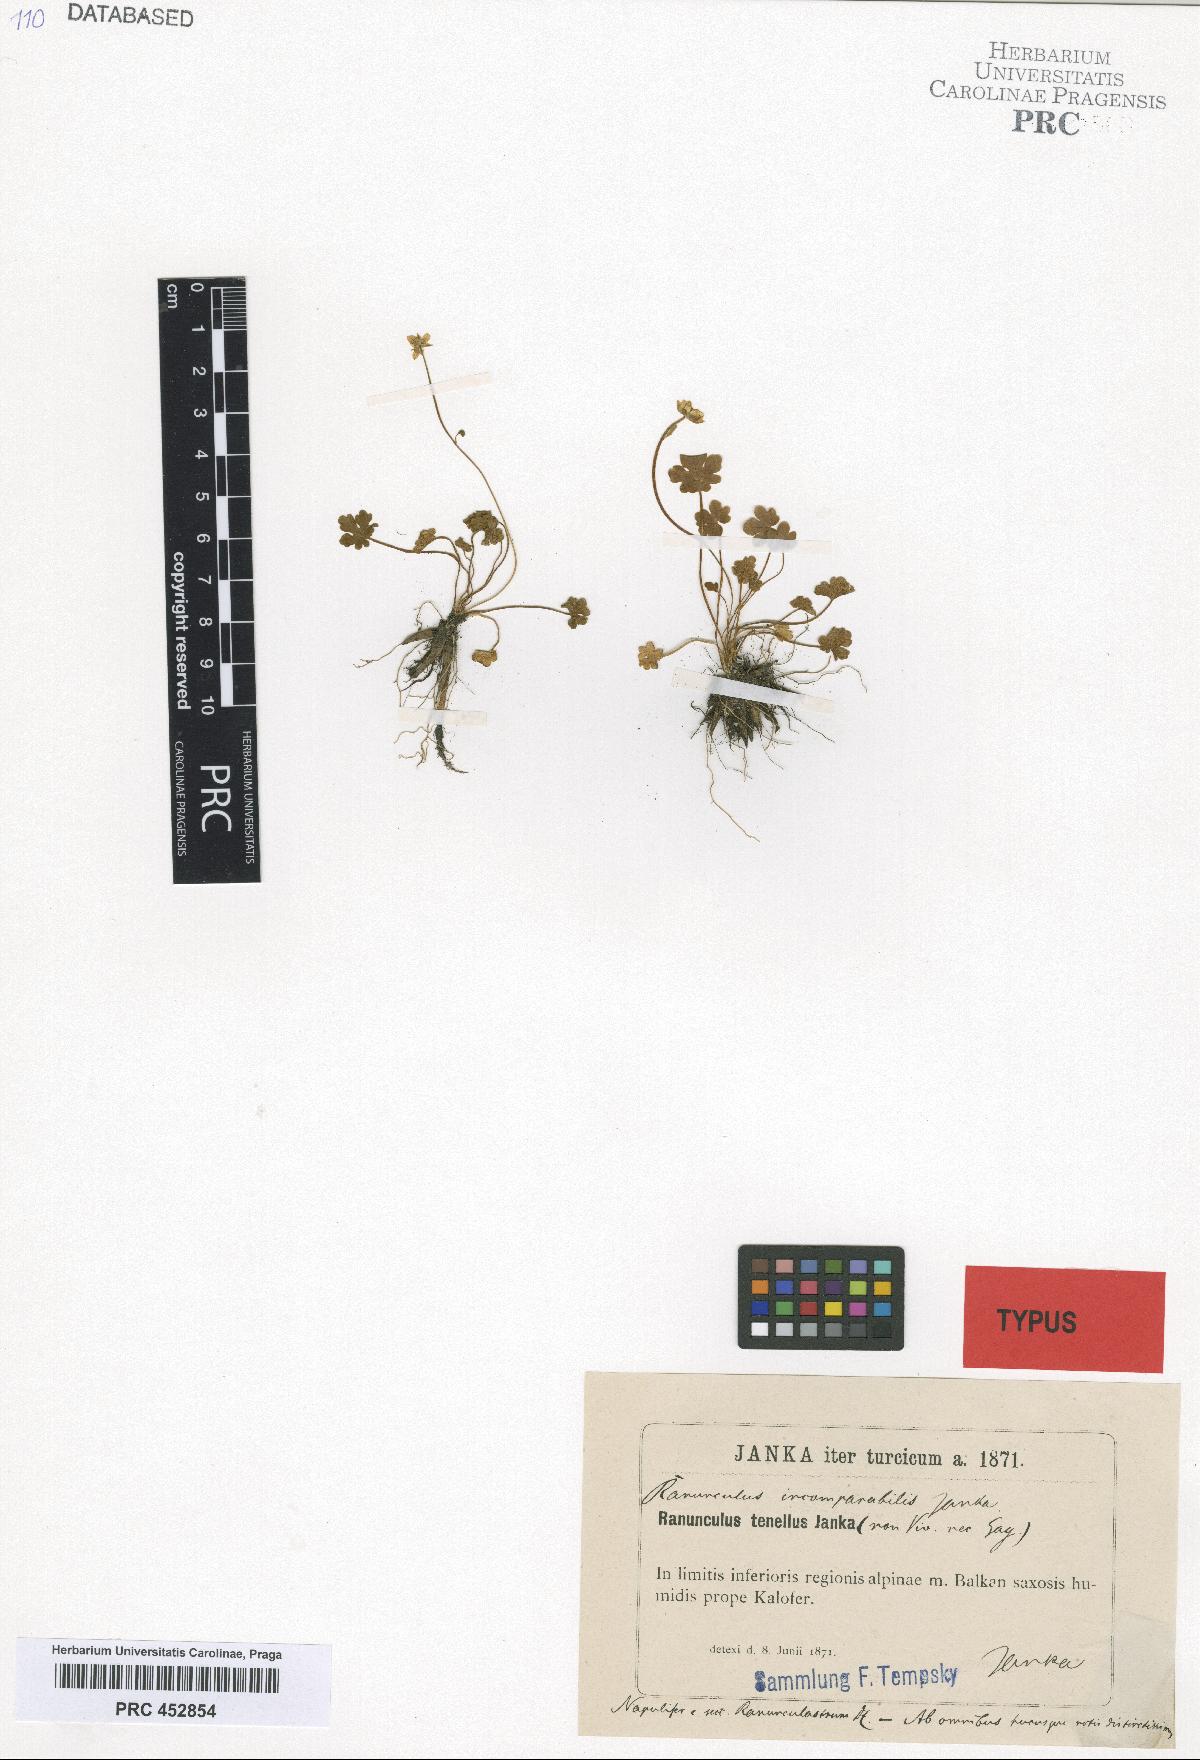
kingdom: Plantae
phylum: Tracheophyta
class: Magnoliopsida
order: Ranunculales
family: Ranunculaceae
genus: Ranunculus
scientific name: Ranunculus incomparabilis
